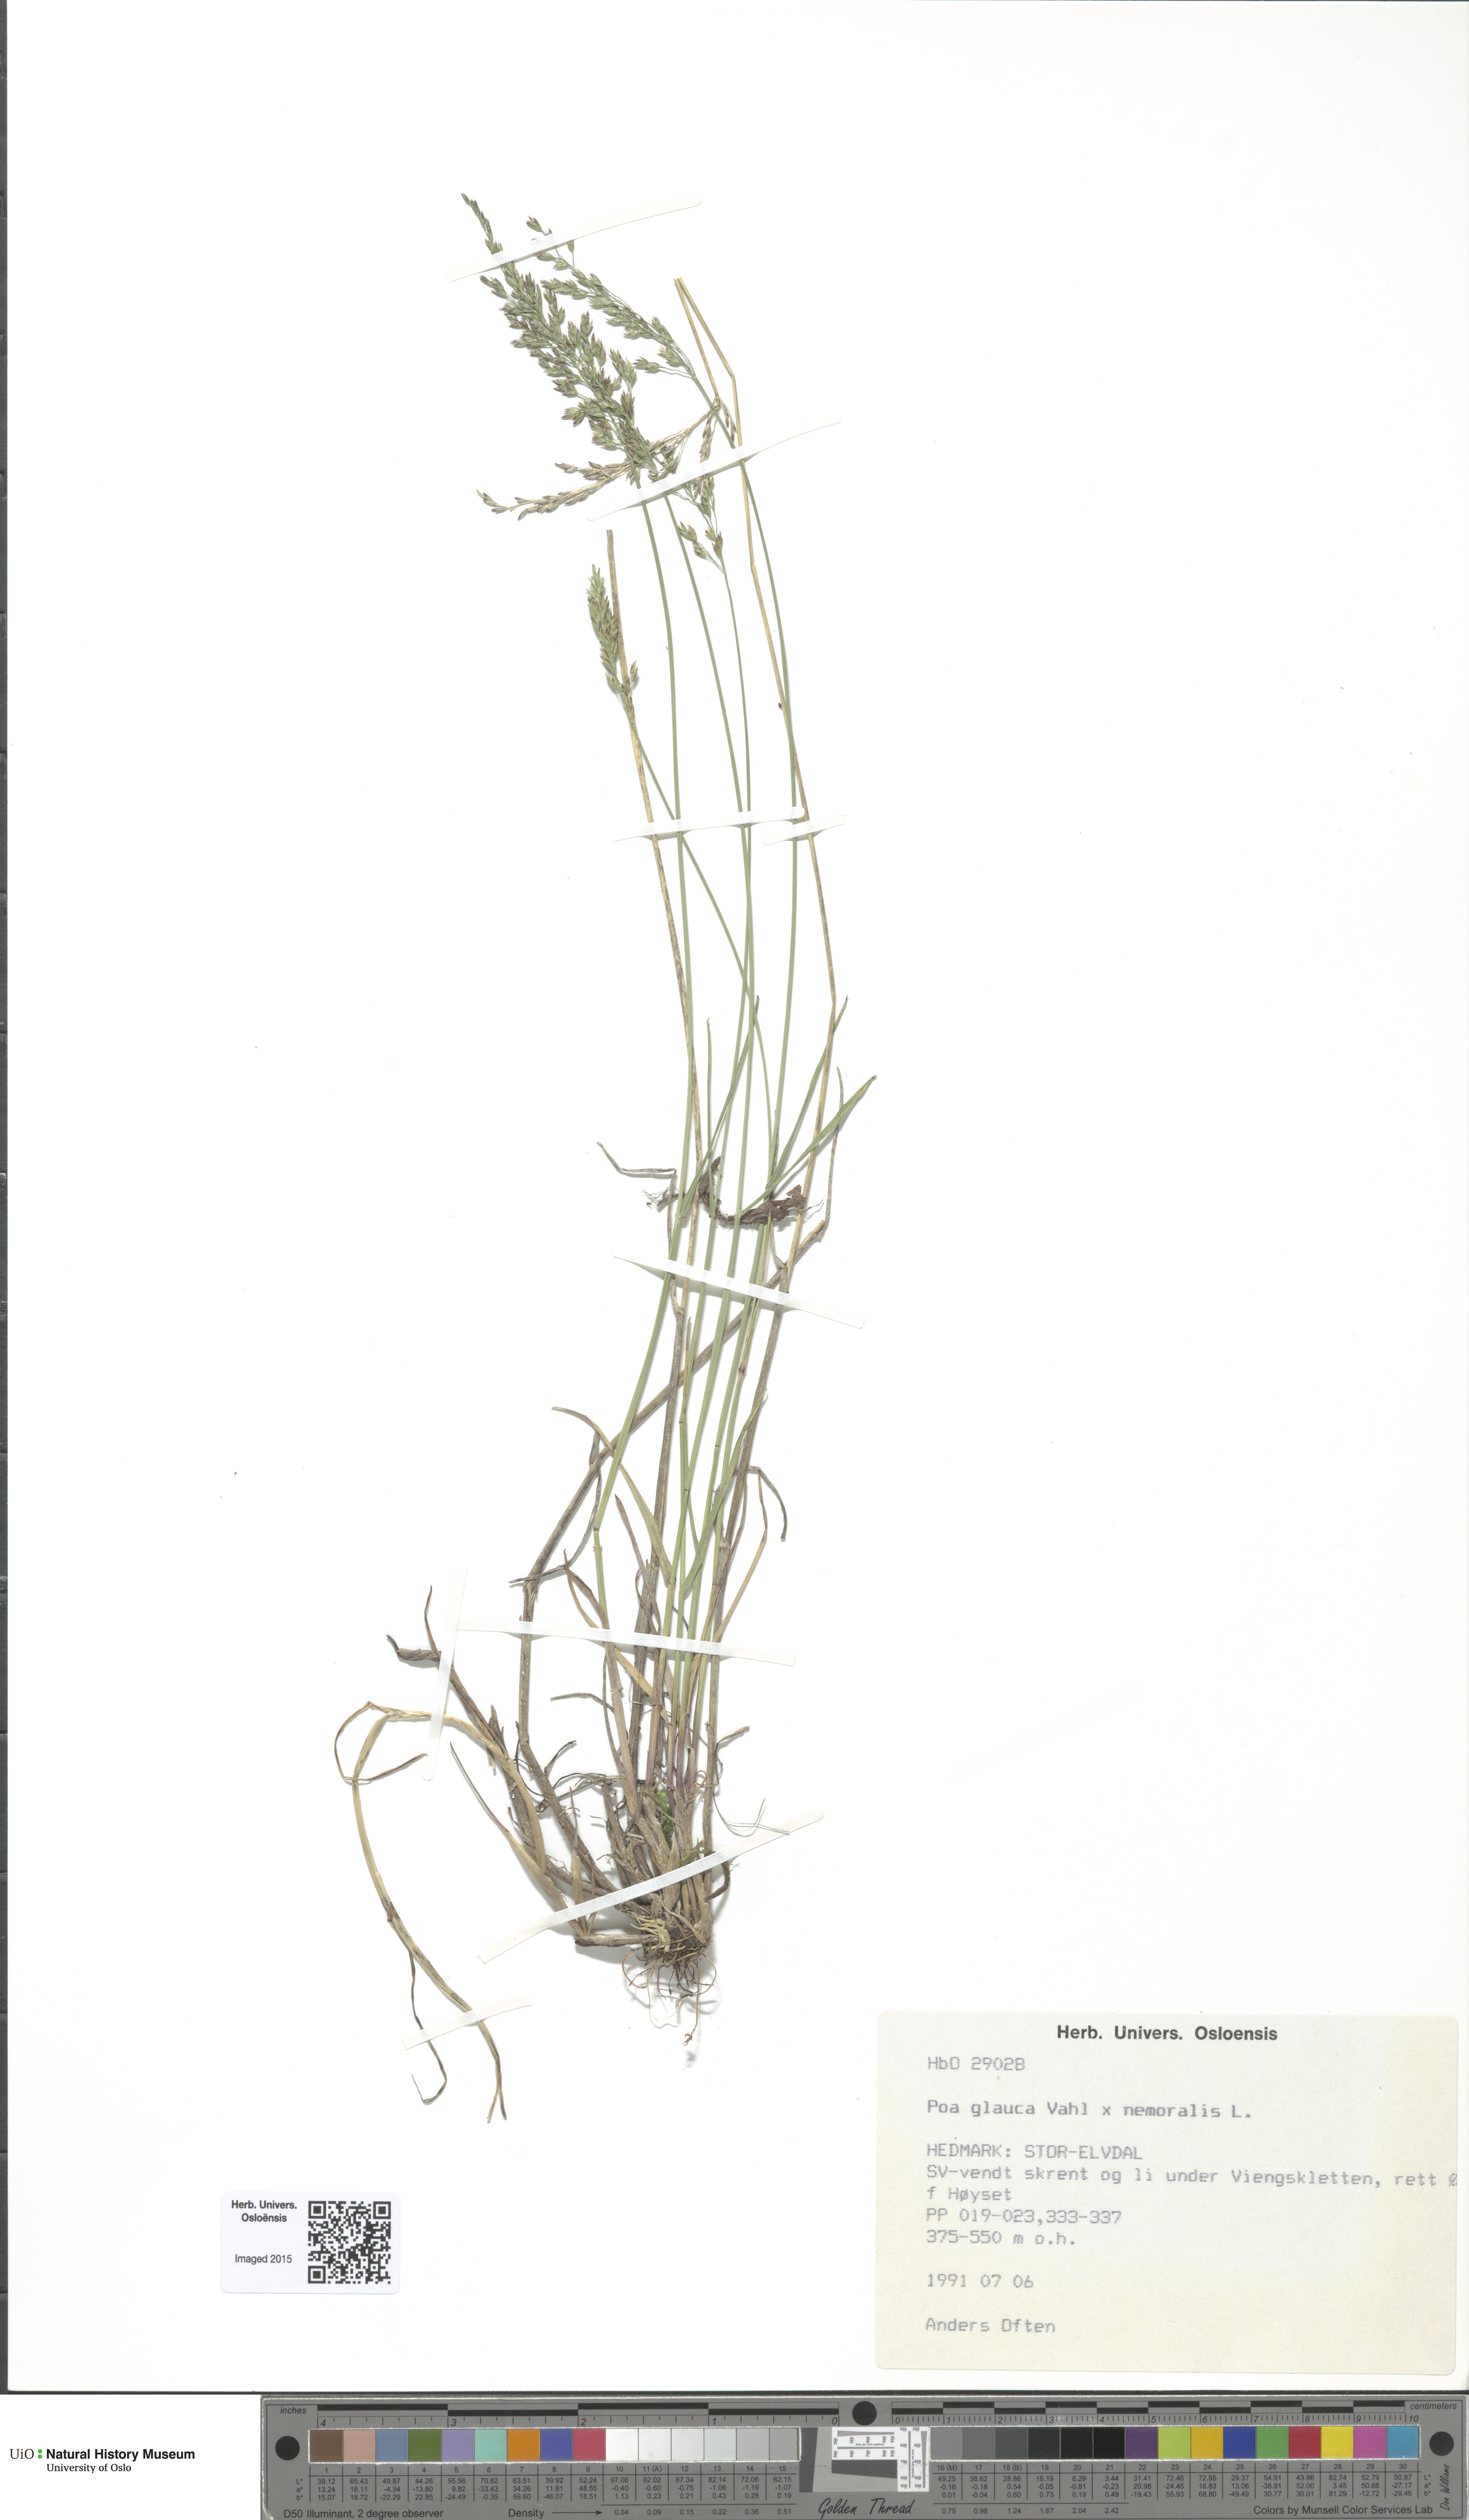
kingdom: Plantae
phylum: Tracheophyta
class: Liliopsida
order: Poales
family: Poaceae
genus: Poa
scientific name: Poa
